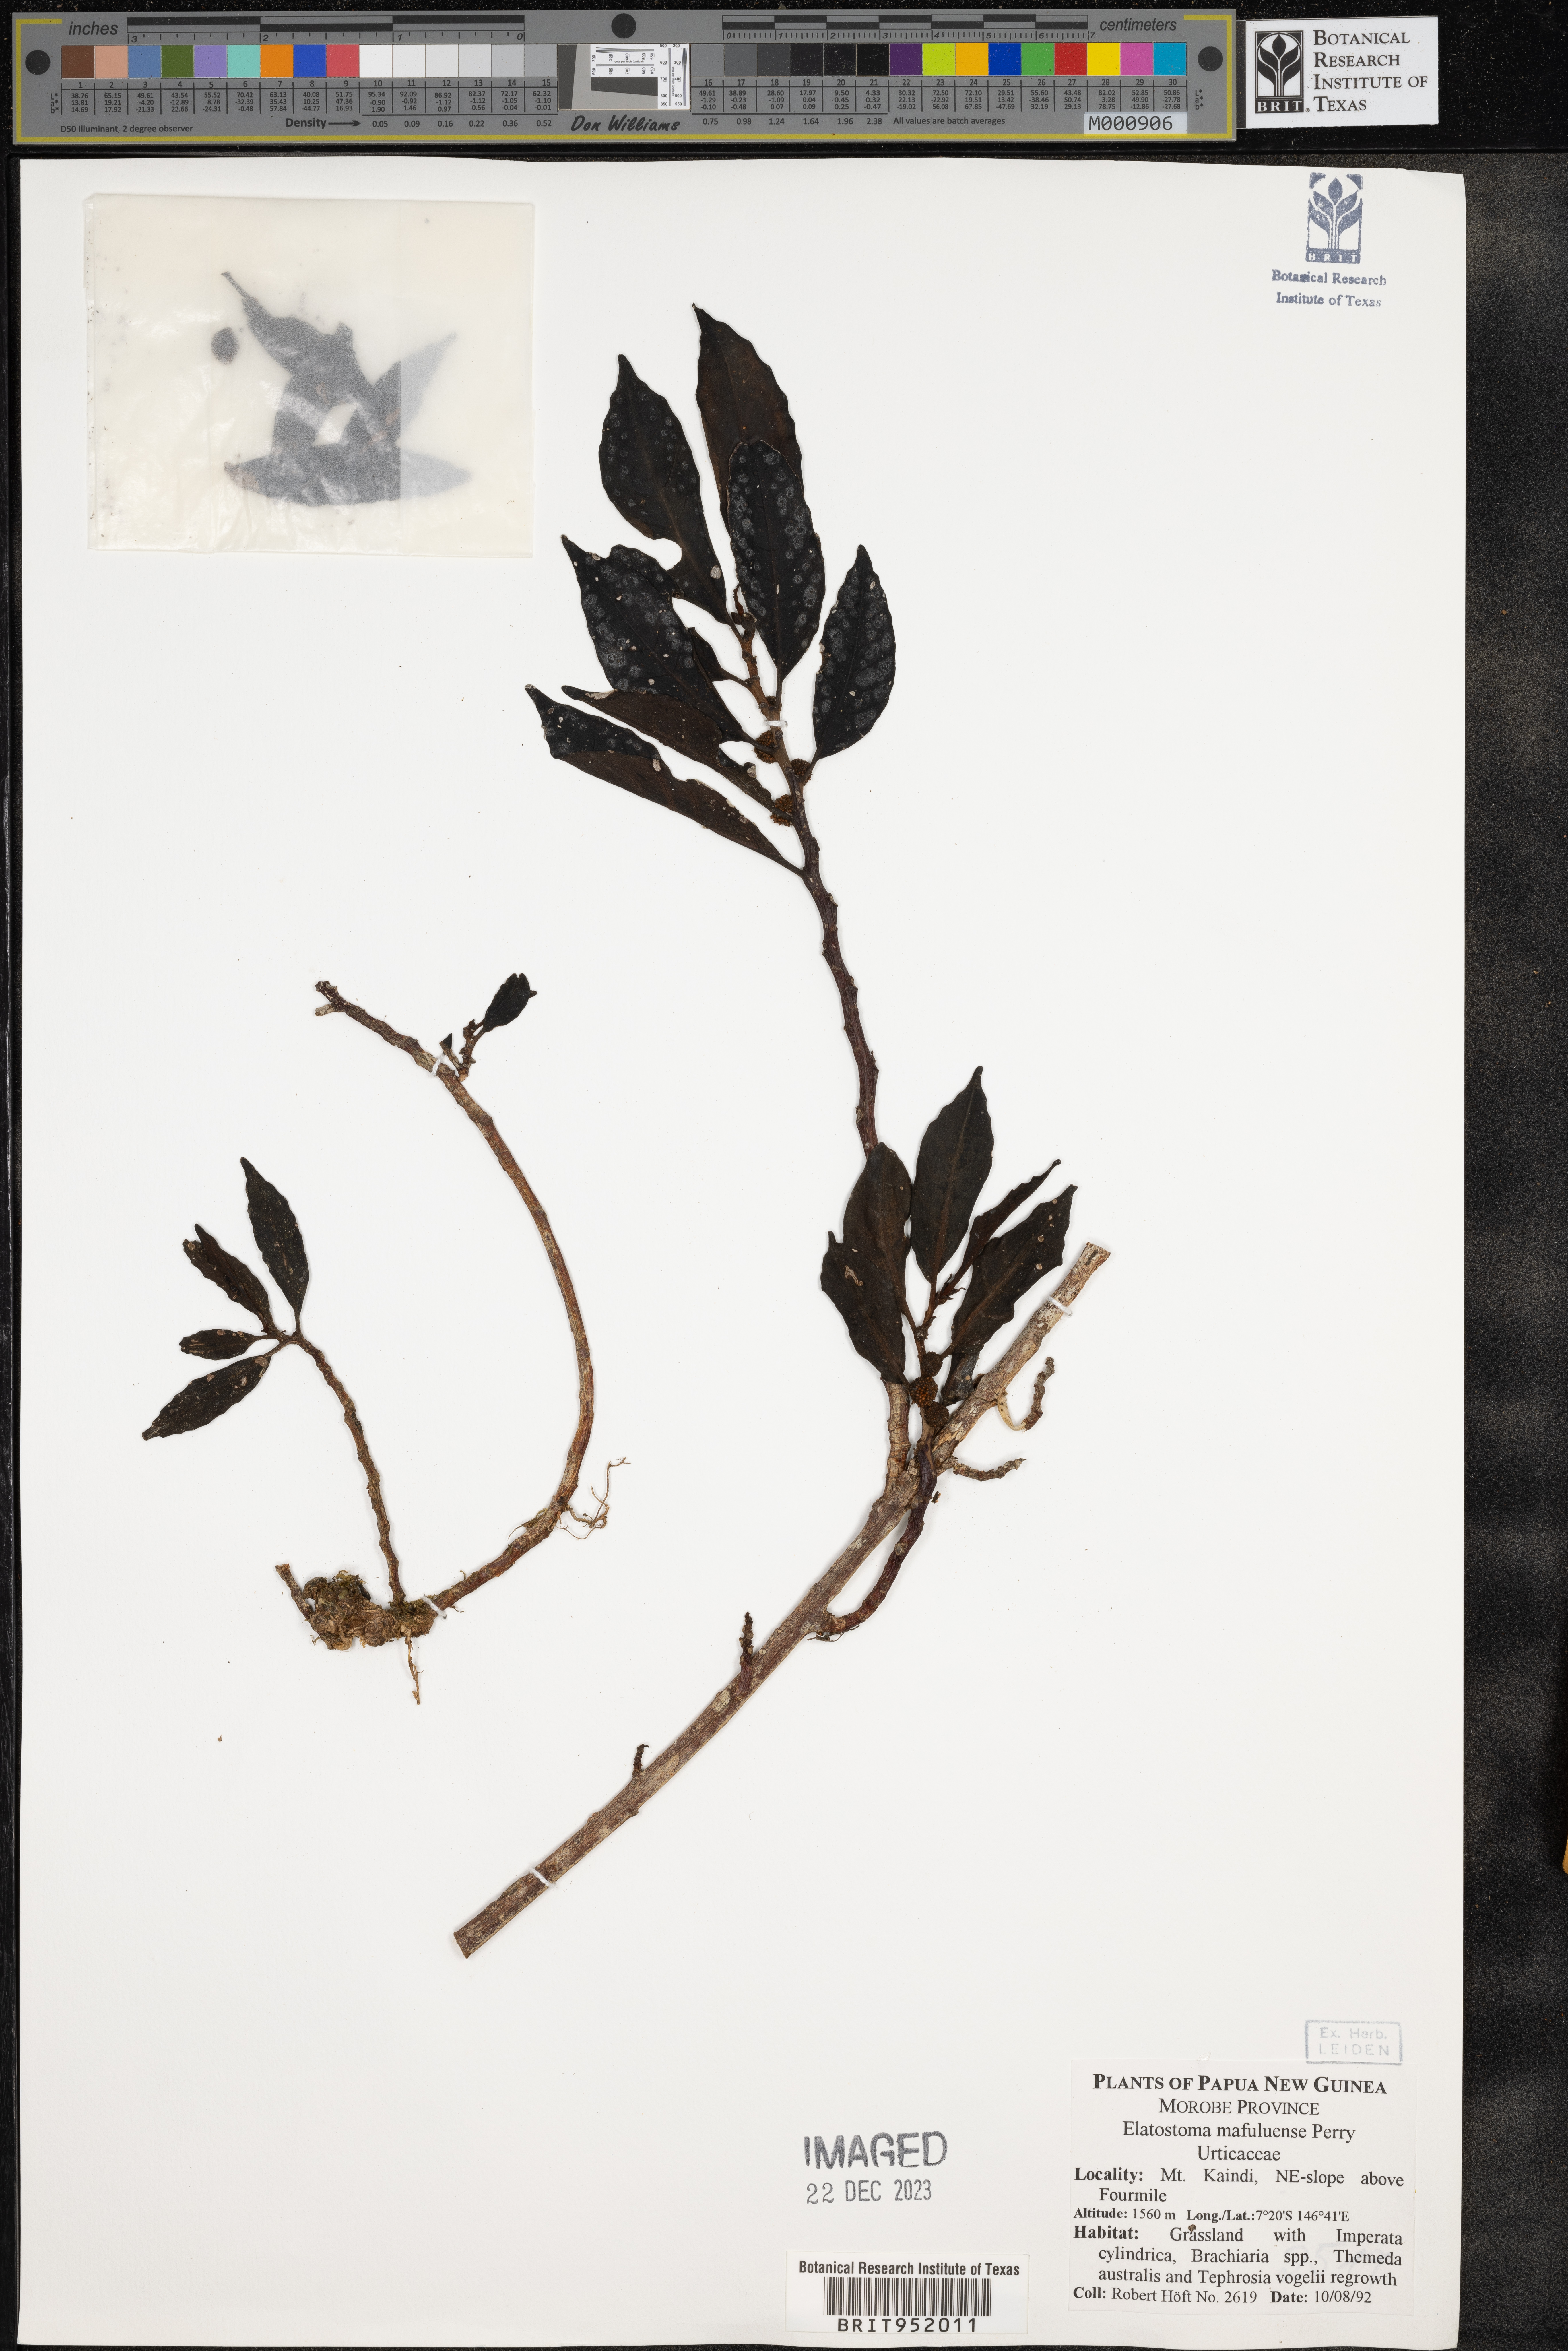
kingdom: Plantae
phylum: Tracheophyta
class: Magnoliopsida
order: Rosales
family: Urticaceae
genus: Elatostema
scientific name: Elatostema
